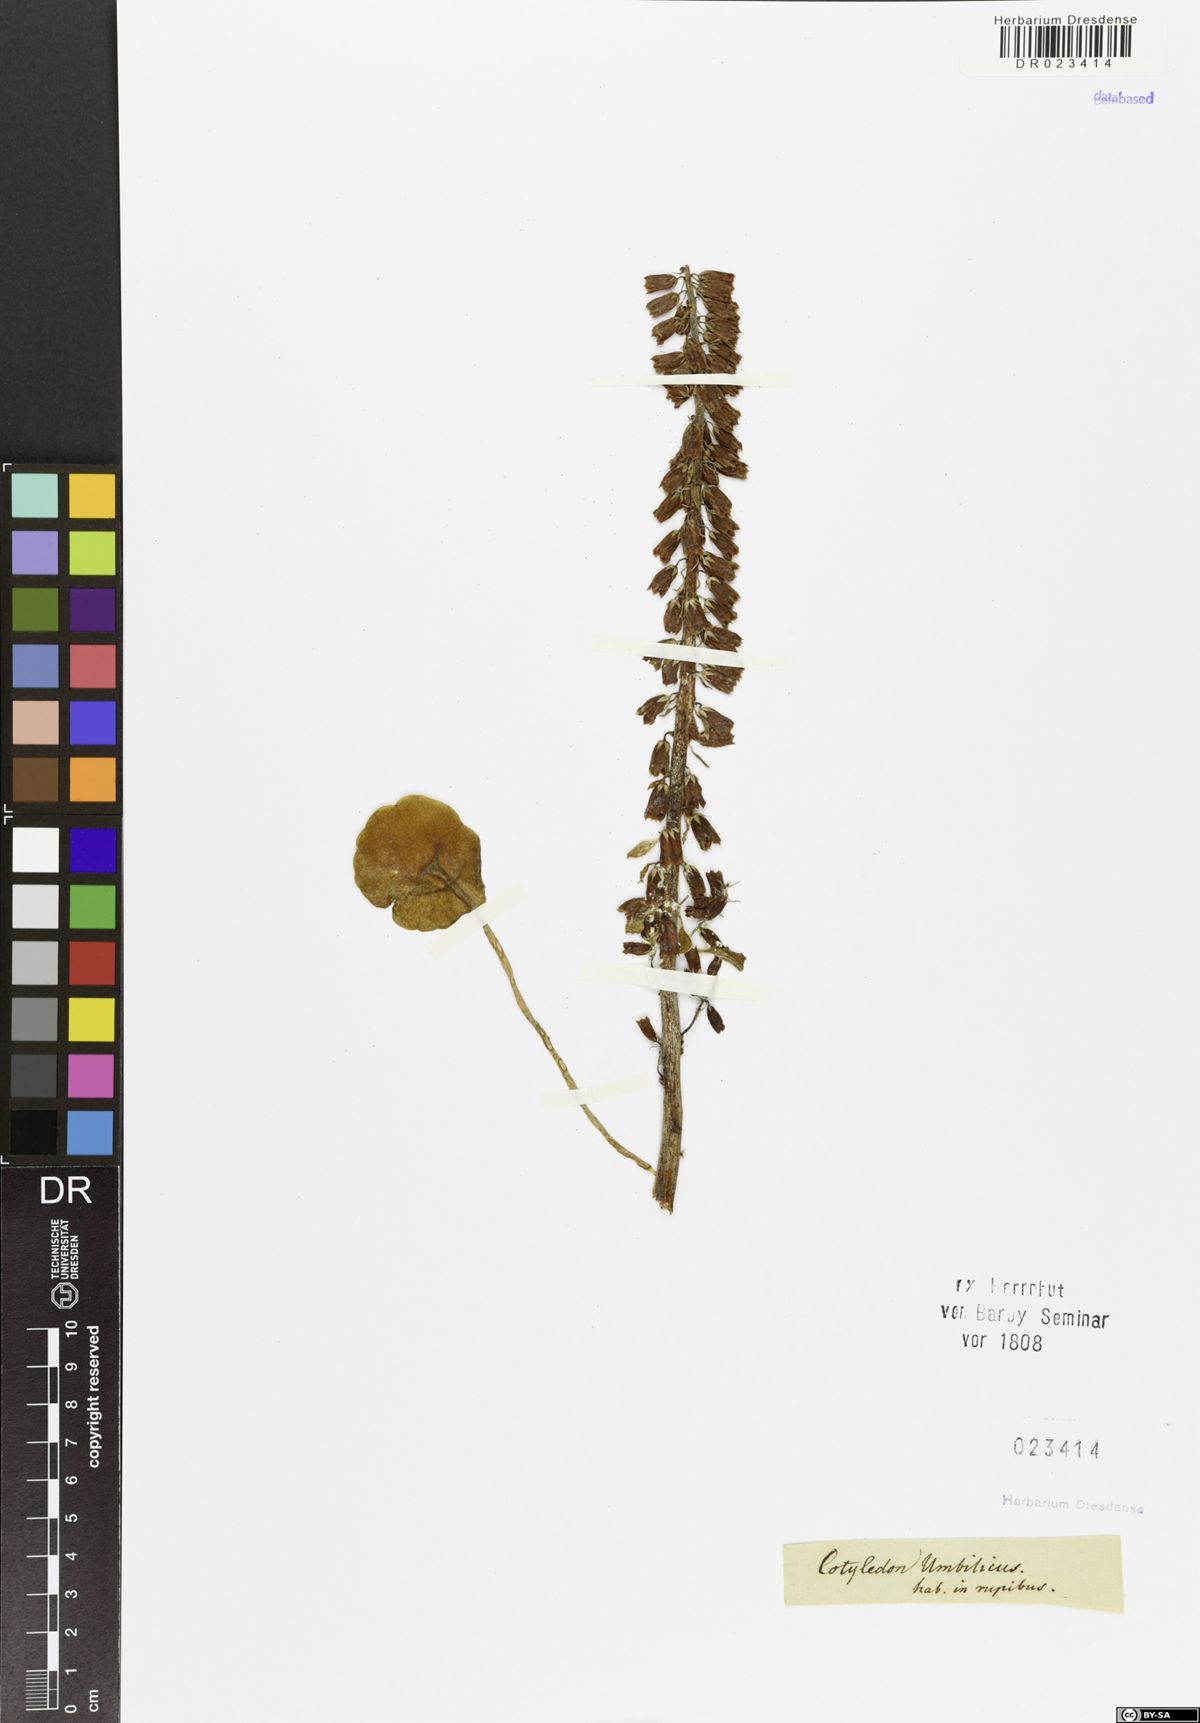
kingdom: Plantae
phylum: Tracheophyta
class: Magnoliopsida
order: Saxifragales
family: Crassulaceae
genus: Umbilicus
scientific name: Umbilicus rupestris
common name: Navelwort
